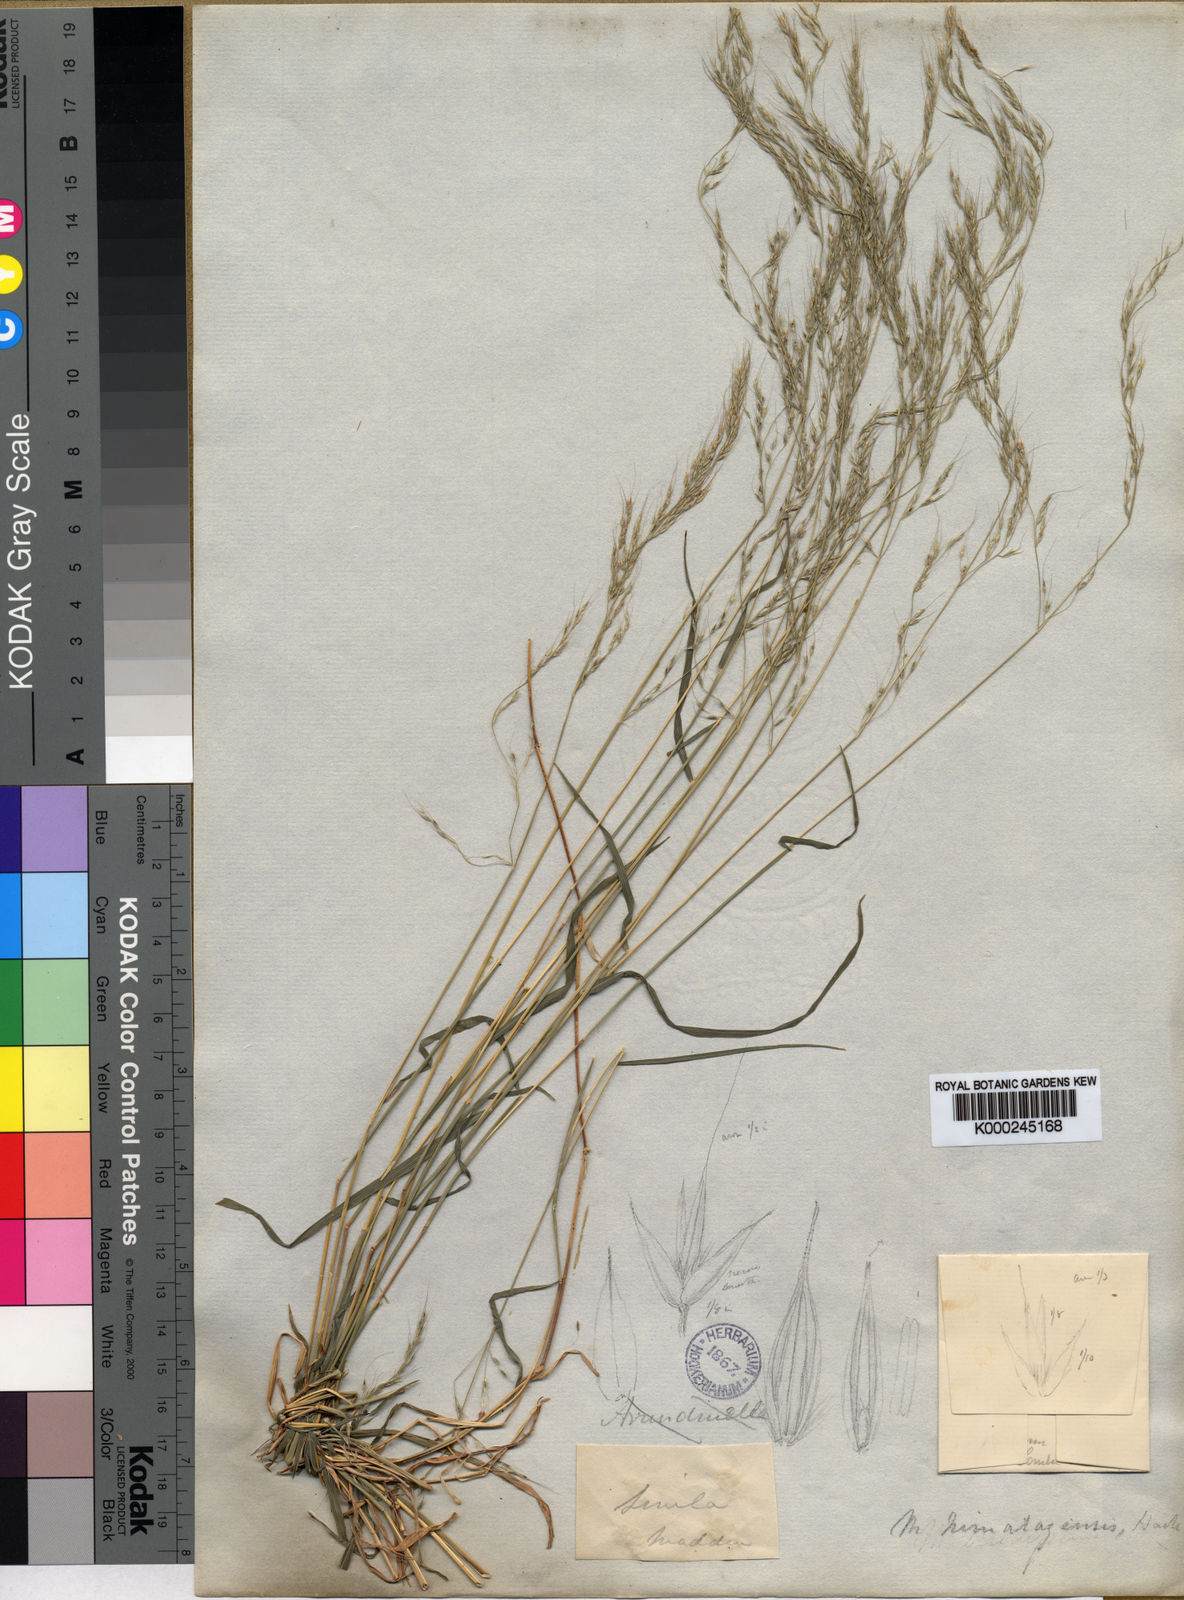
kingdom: Plantae
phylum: Tracheophyta
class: Liliopsida
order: Poales
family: Poaceae
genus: Muhlenbergia
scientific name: Muhlenbergia himalayensis
